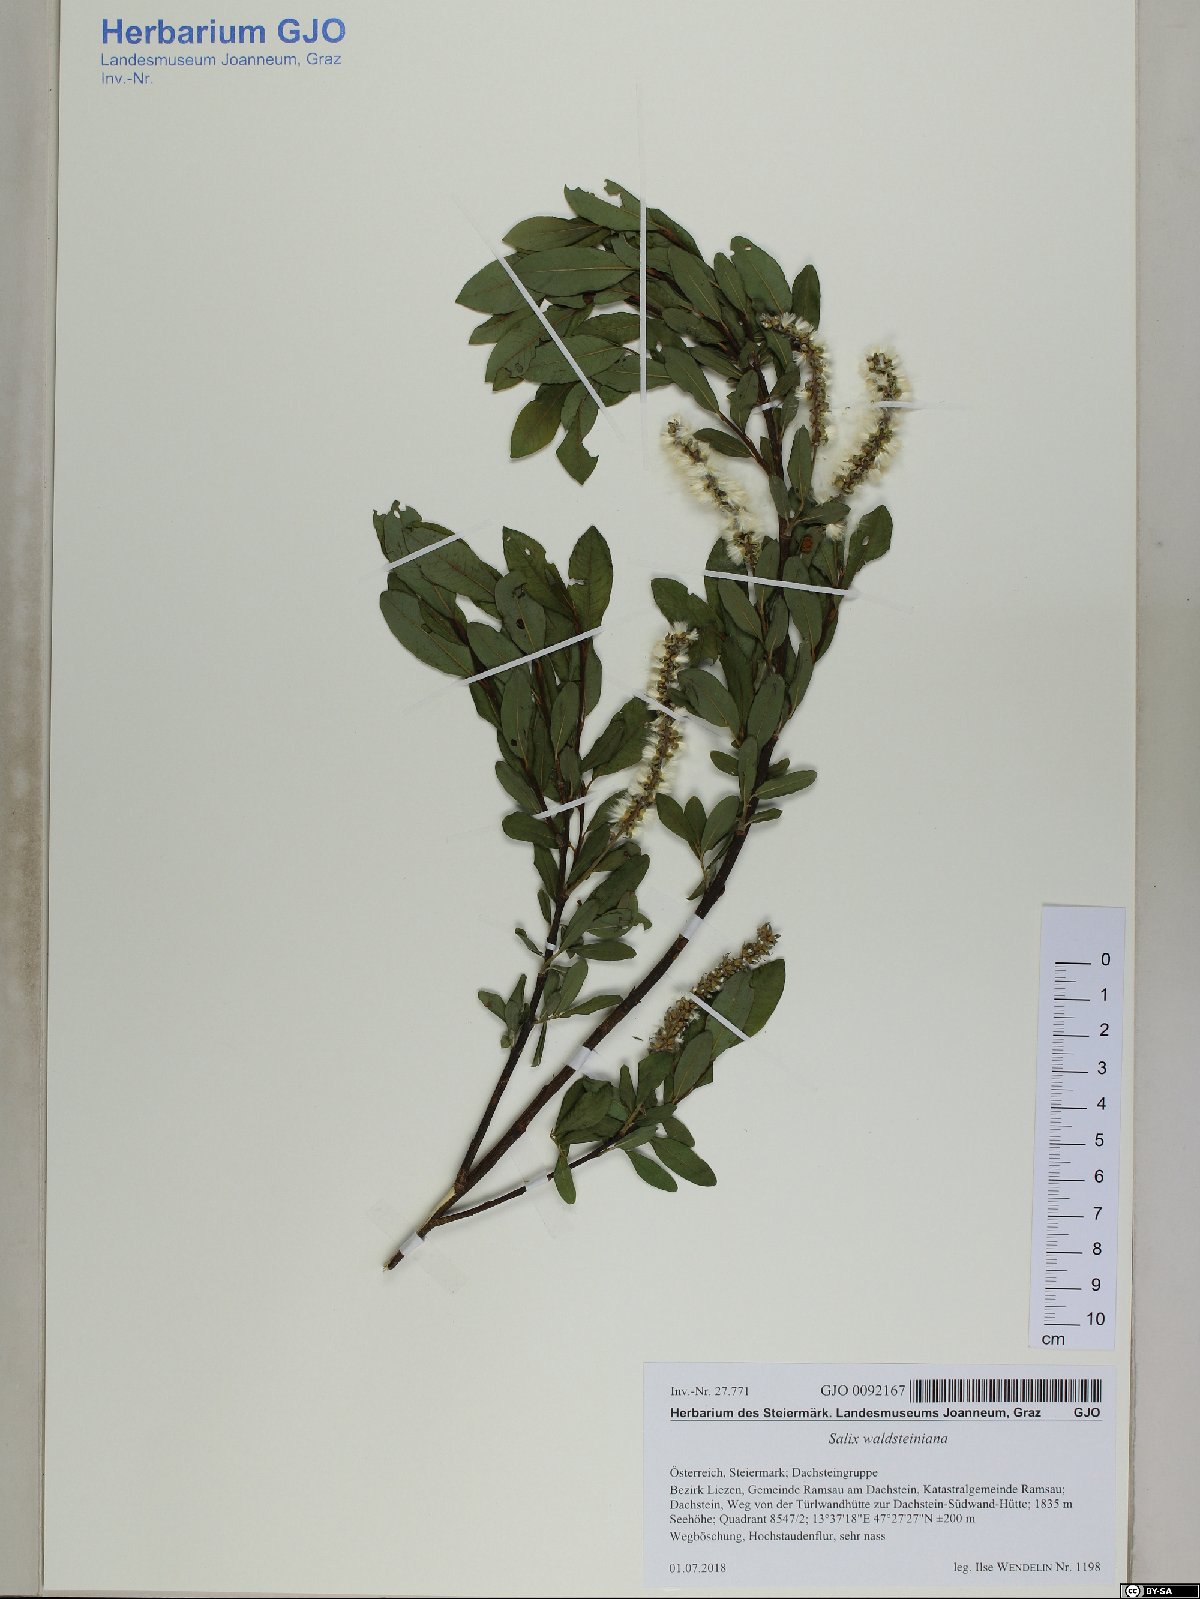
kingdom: Plantae
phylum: Tracheophyta
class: Magnoliopsida
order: Malpighiales
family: Salicaceae
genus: Salix
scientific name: Salix waldsteiniana
